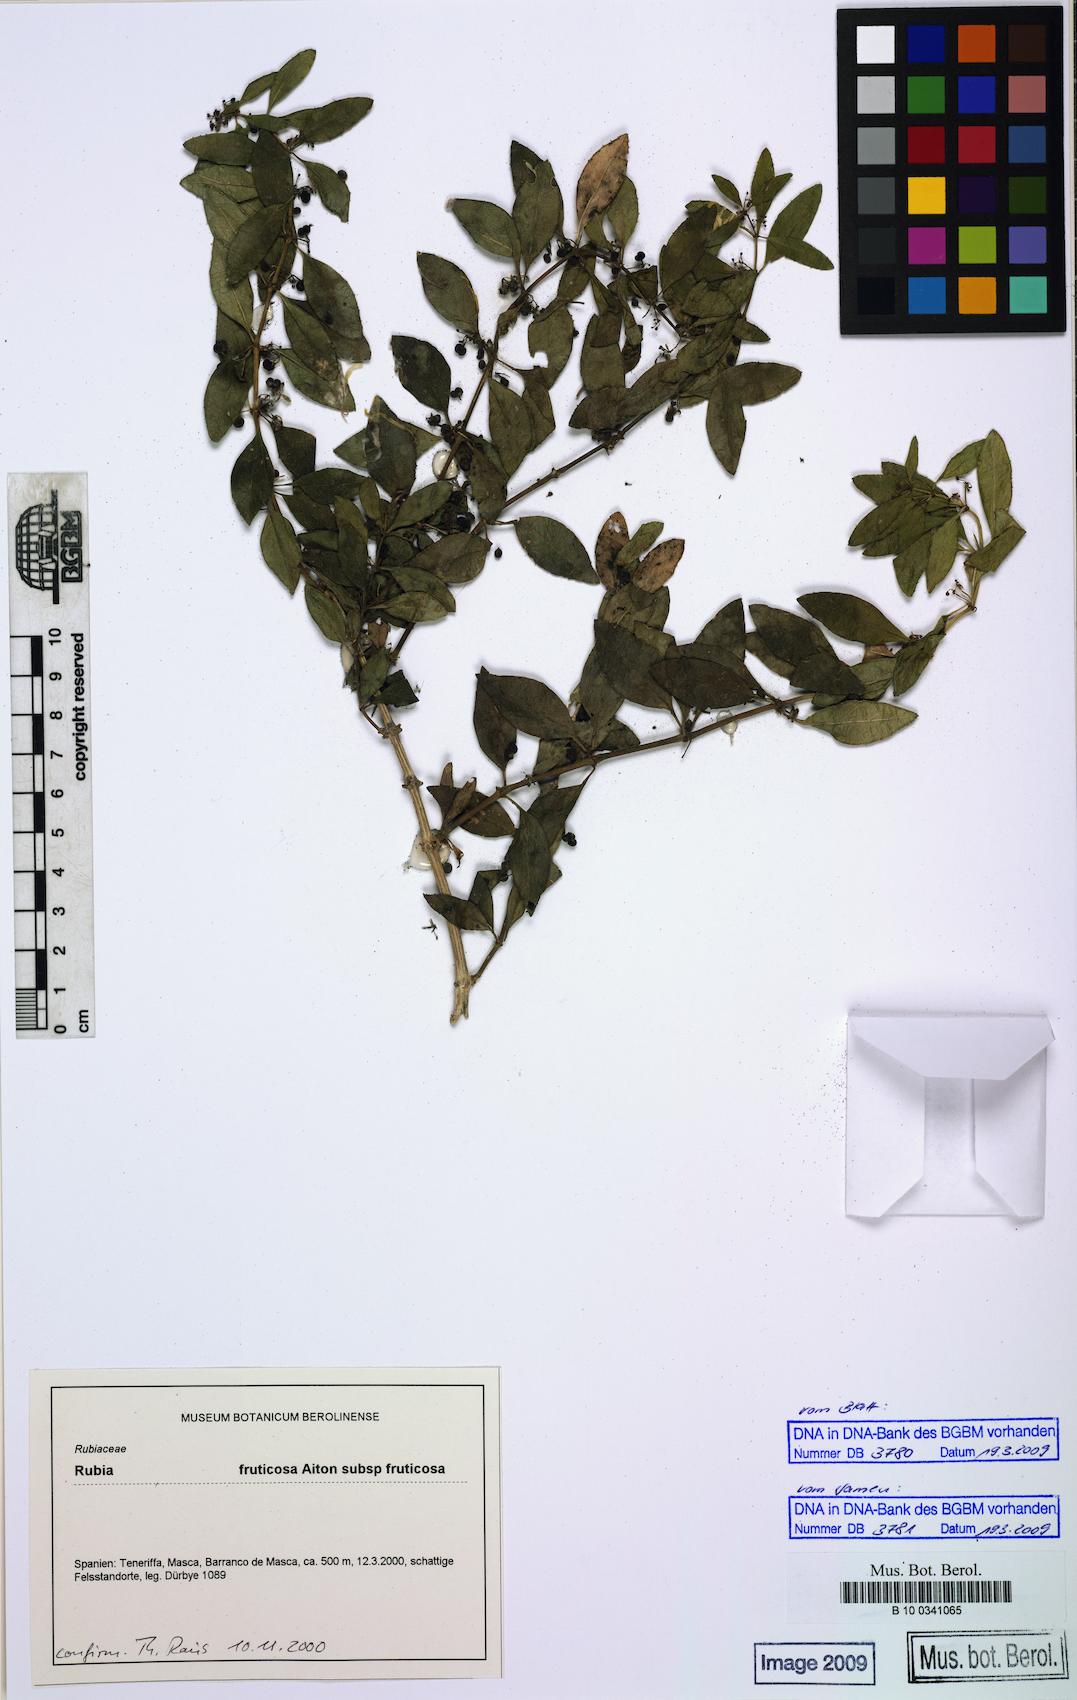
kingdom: Plantae
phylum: Tracheophyta
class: Magnoliopsida
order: Gentianales
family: Rubiaceae
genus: Rubia
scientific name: Rubia fruticosa
